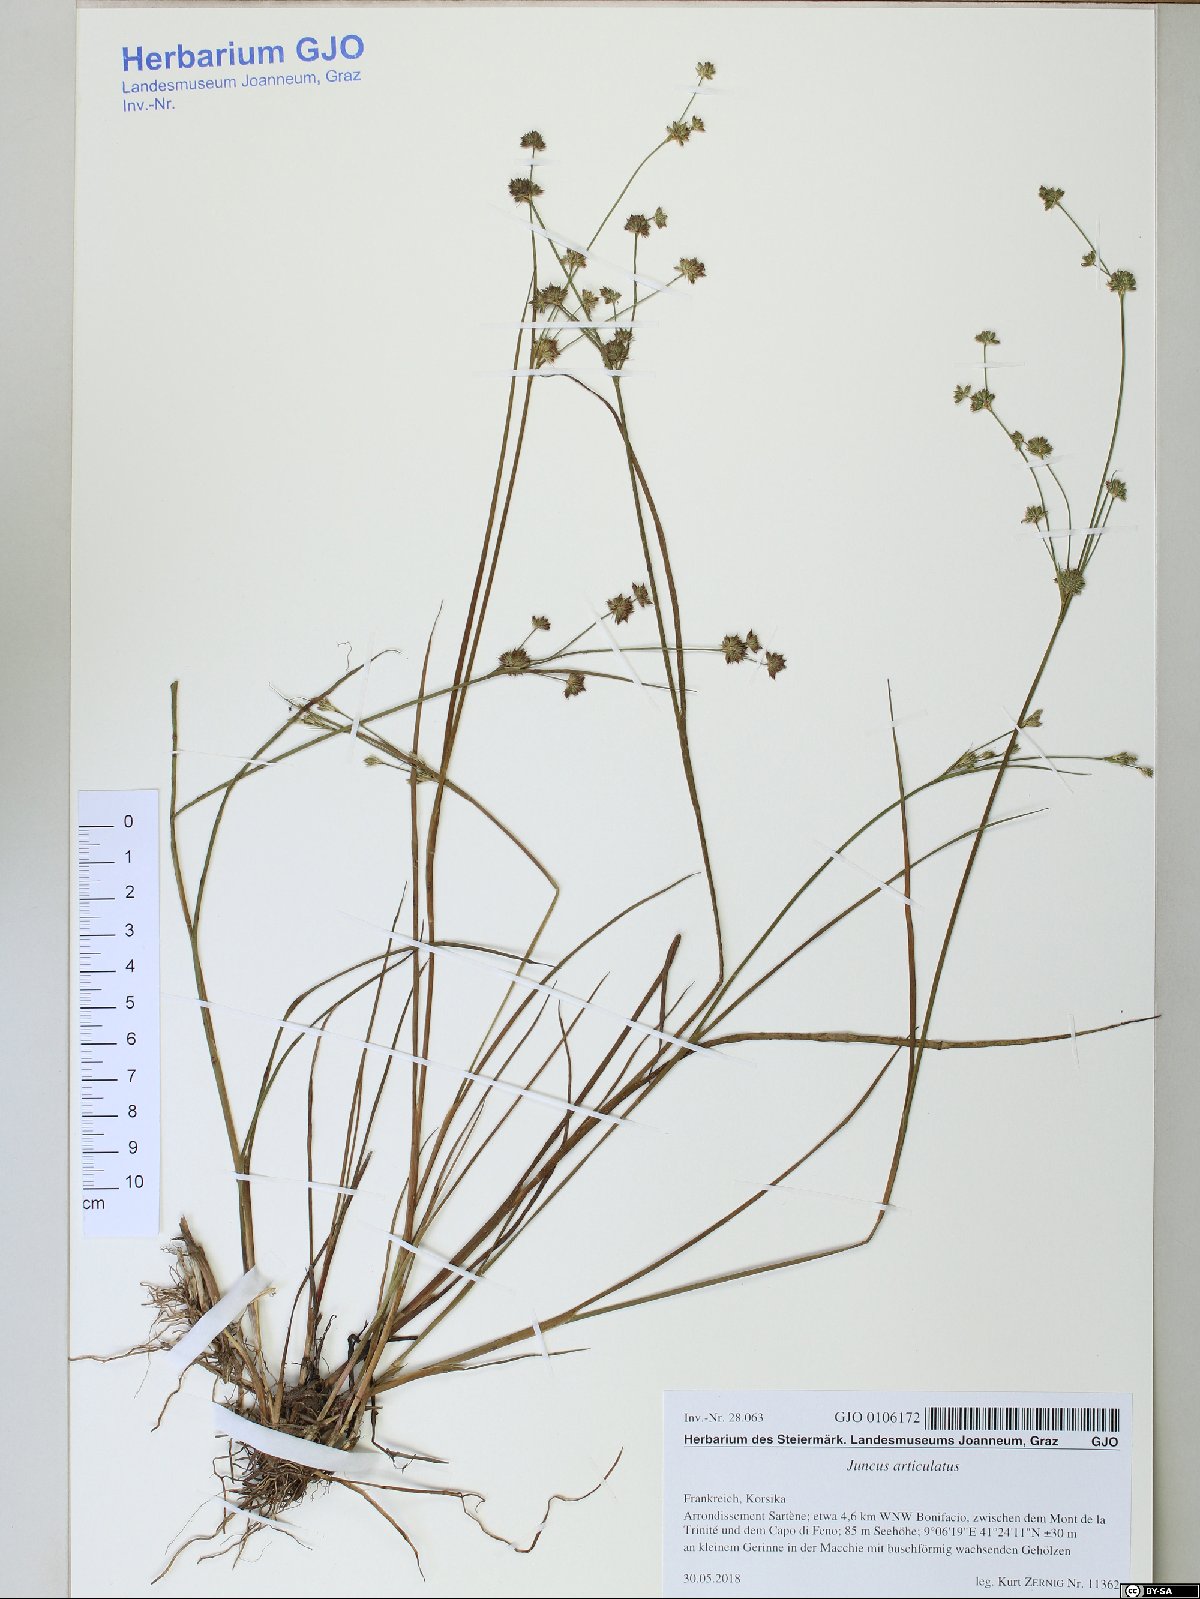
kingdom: Plantae
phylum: Tracheophyta
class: Liliopsida
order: Poales
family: Juncaceae
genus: Juncus
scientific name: Juncus articulatus
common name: Jointed rush
